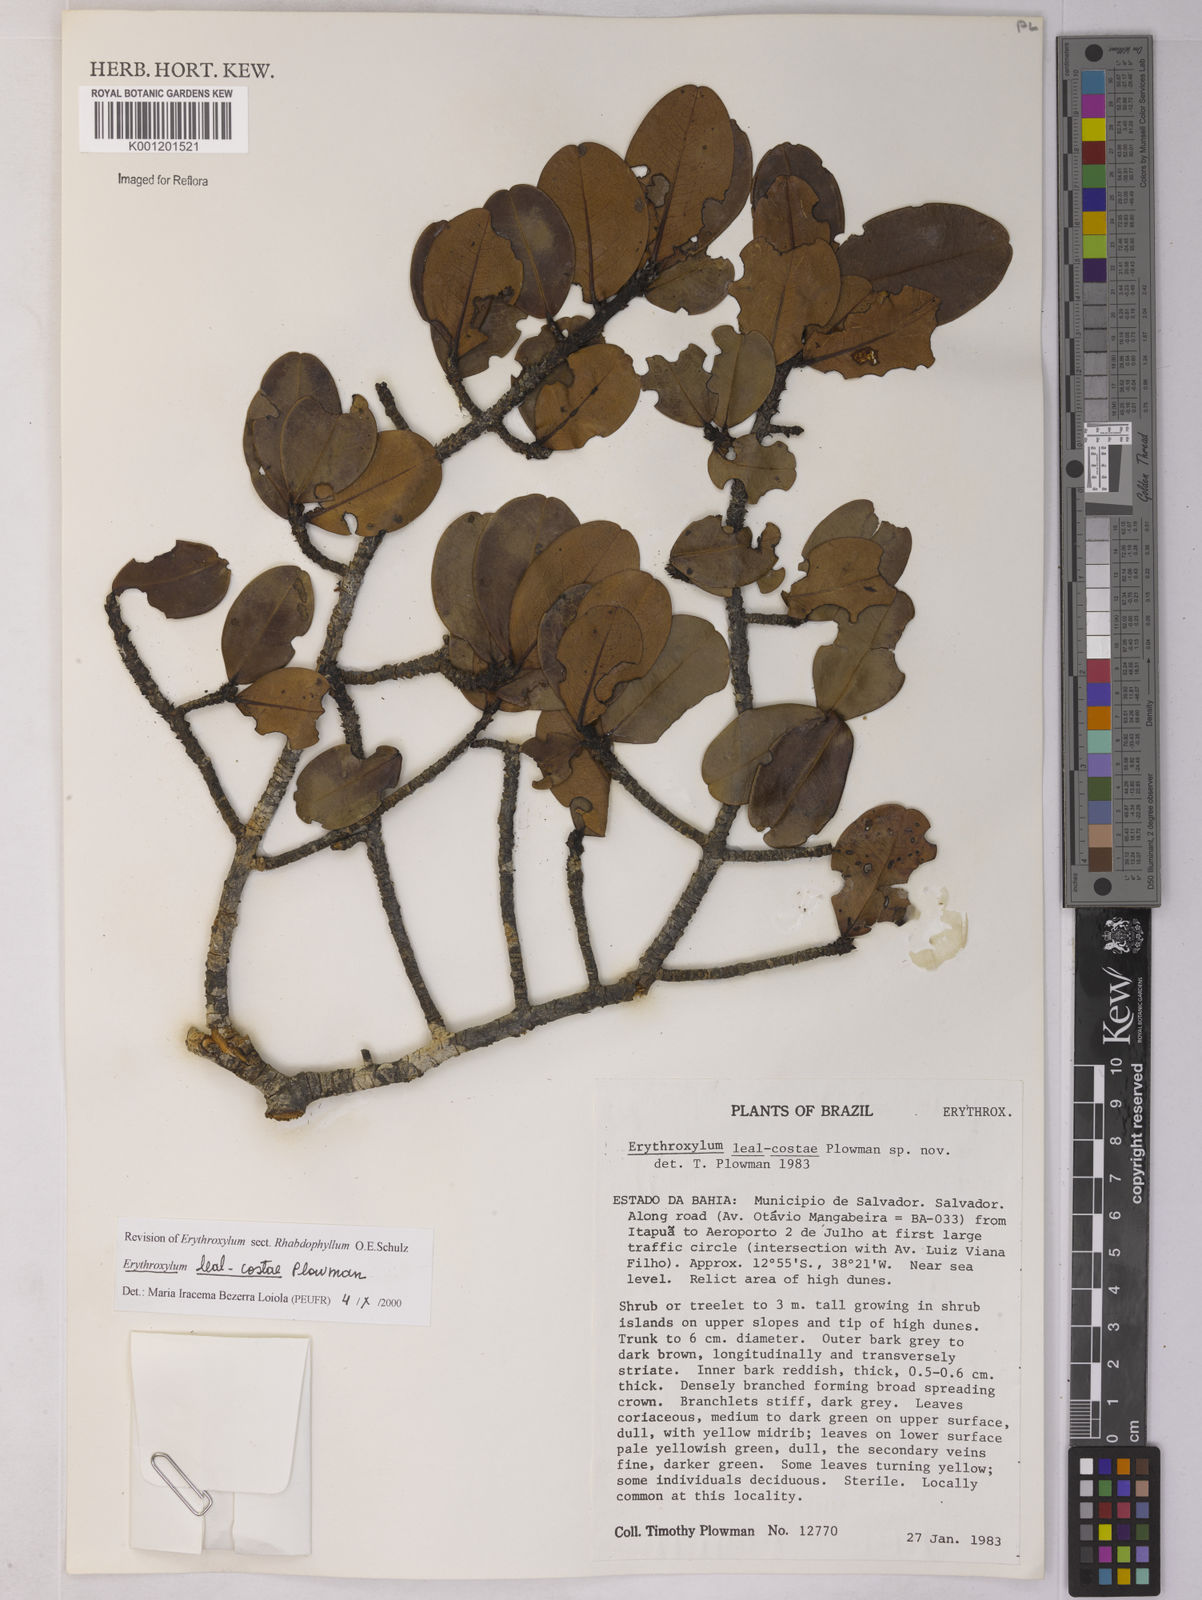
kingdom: Plantae
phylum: Tracheophyta
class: Magnoliopsida
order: Malpighiales
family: Erythroxylaceae
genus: Erythroxylum
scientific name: Erythroxylum leal-costae
